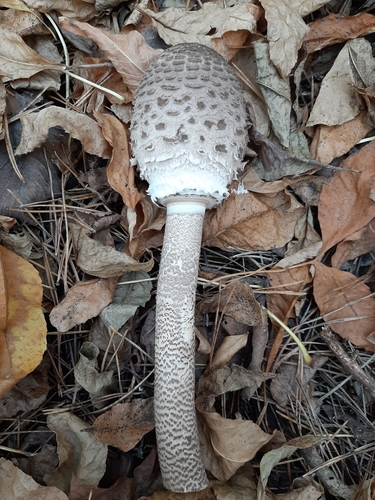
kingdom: Fungi
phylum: Basidiomycota
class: Agaricomycetes
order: Agaricales
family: Agaricaceae
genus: Macrolepiota
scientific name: Macrolepiota procera
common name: Parasol
